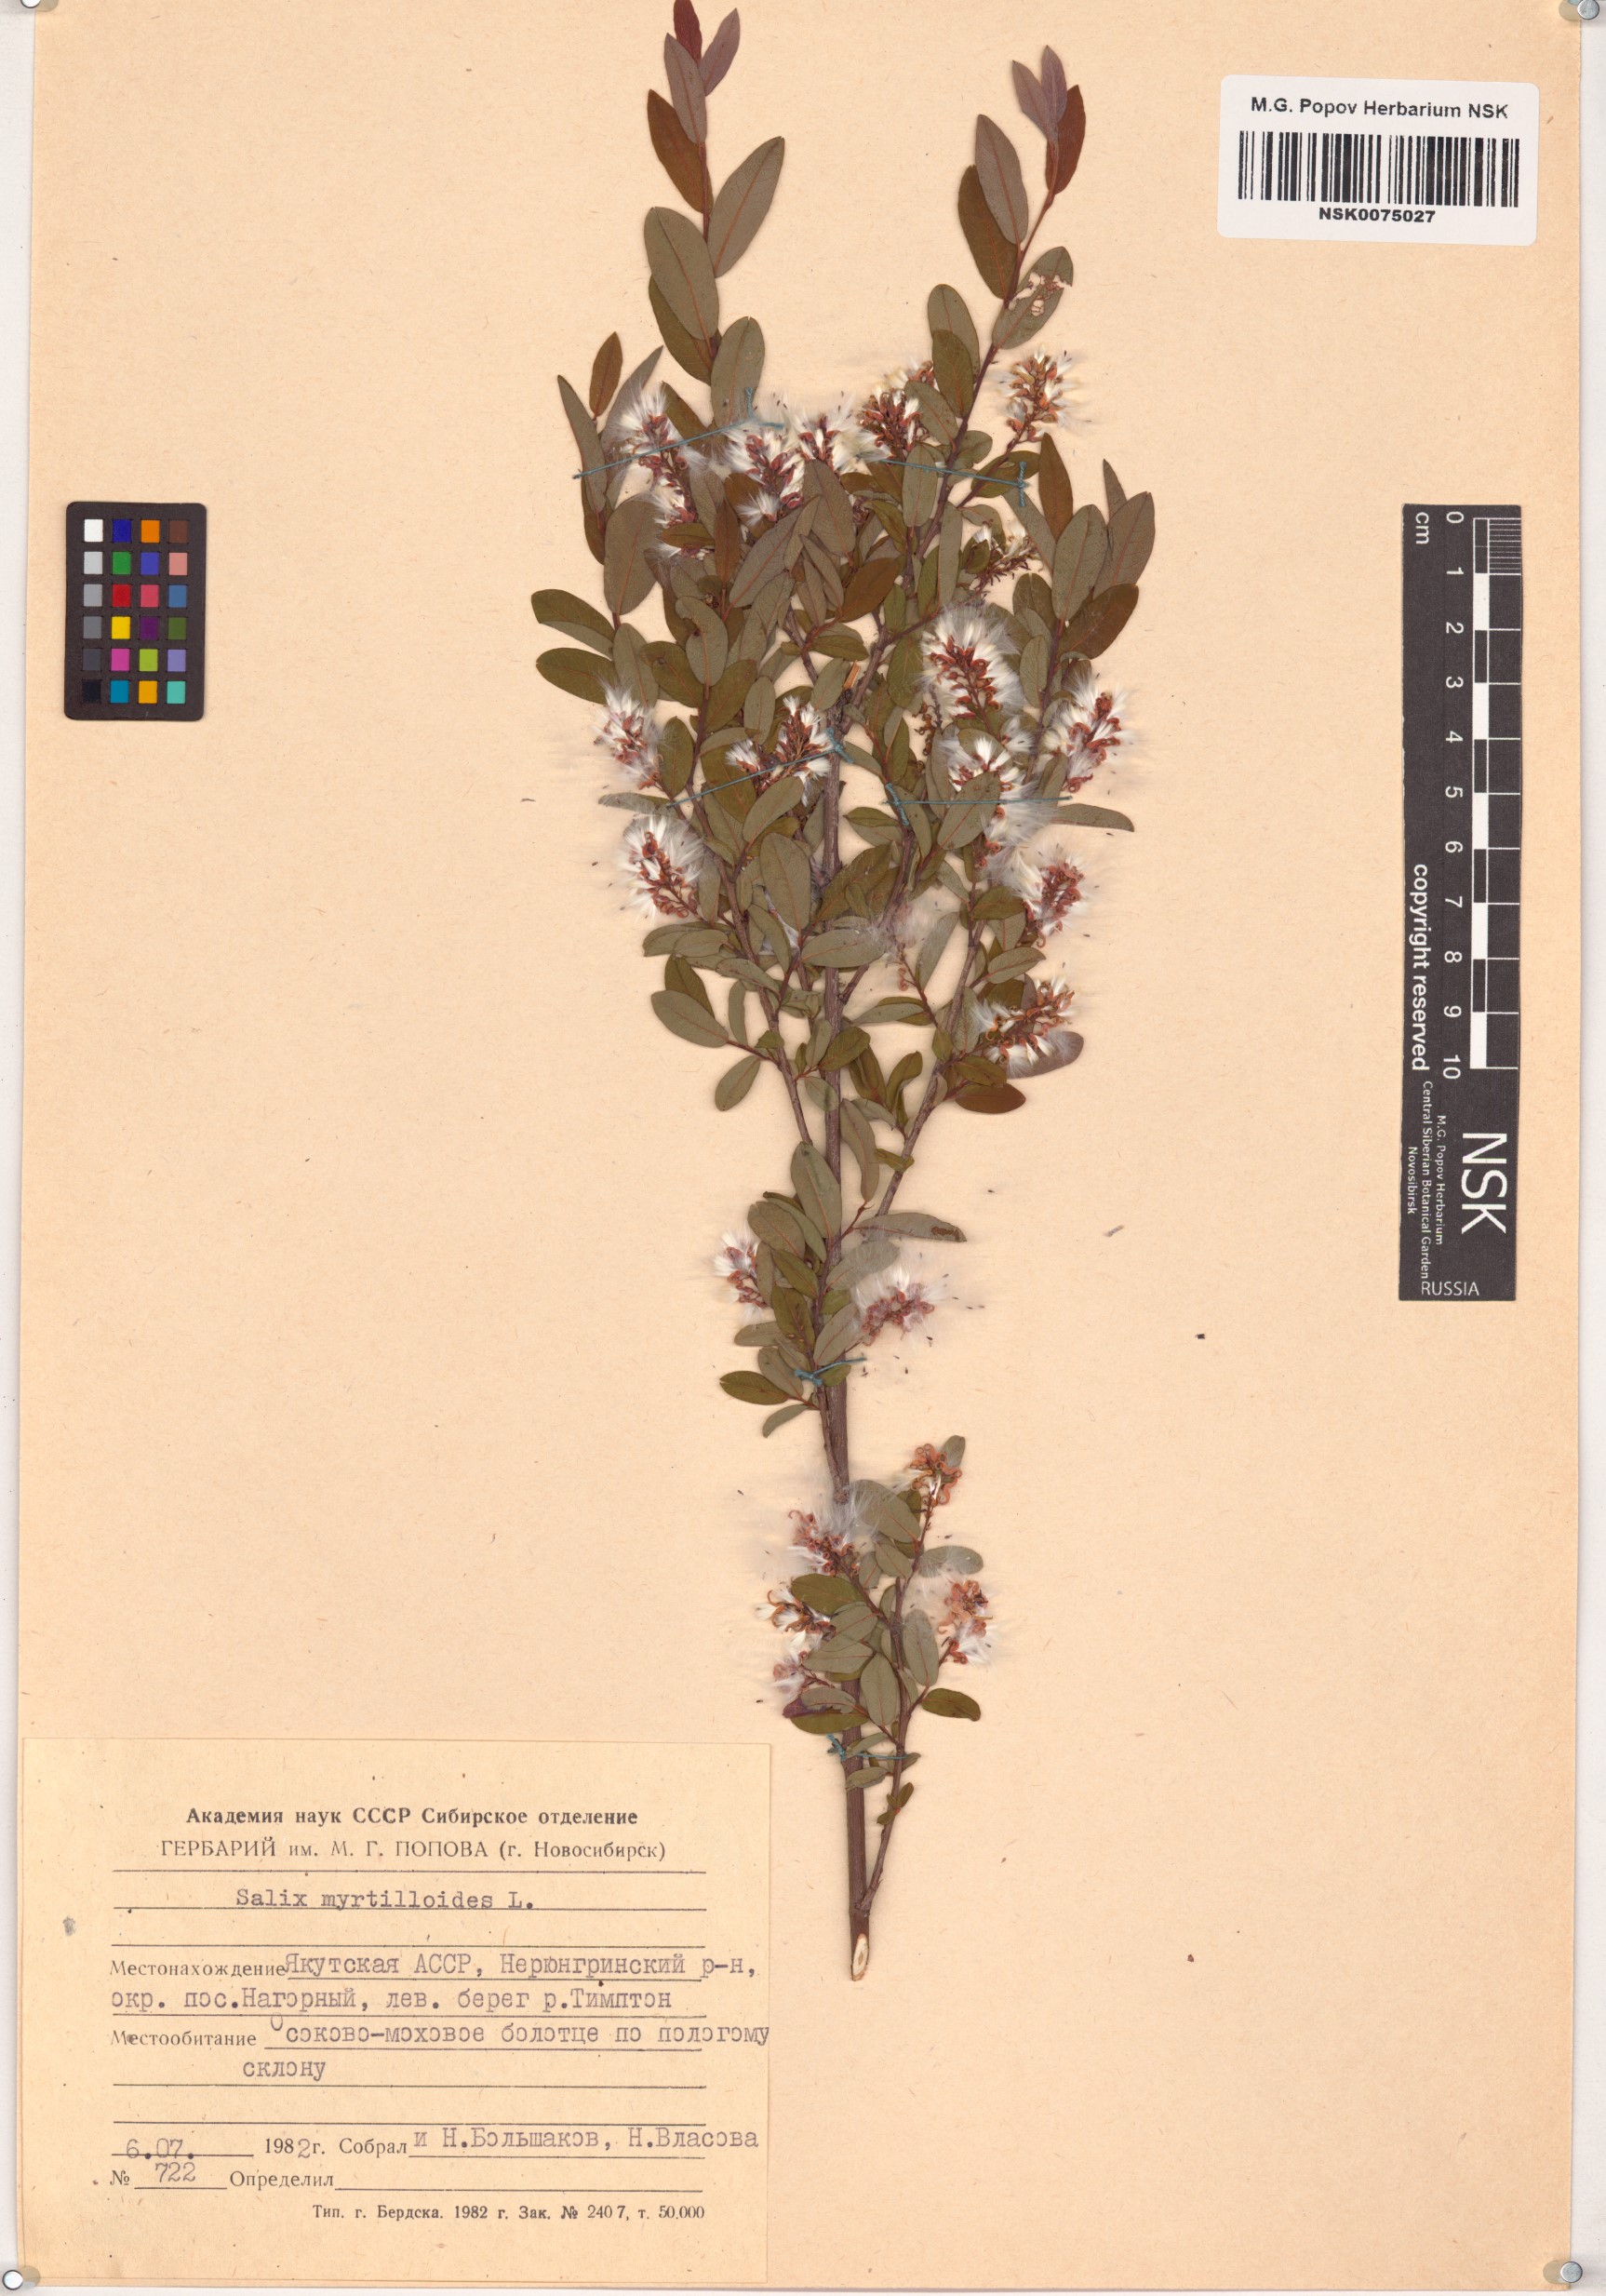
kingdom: Plantae
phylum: Tracheophyta
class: Magnoliopsida
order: Malpighiales
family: Salicaceae
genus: Salix
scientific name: Salix myrtilloides
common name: Myrtle-leaved willow
